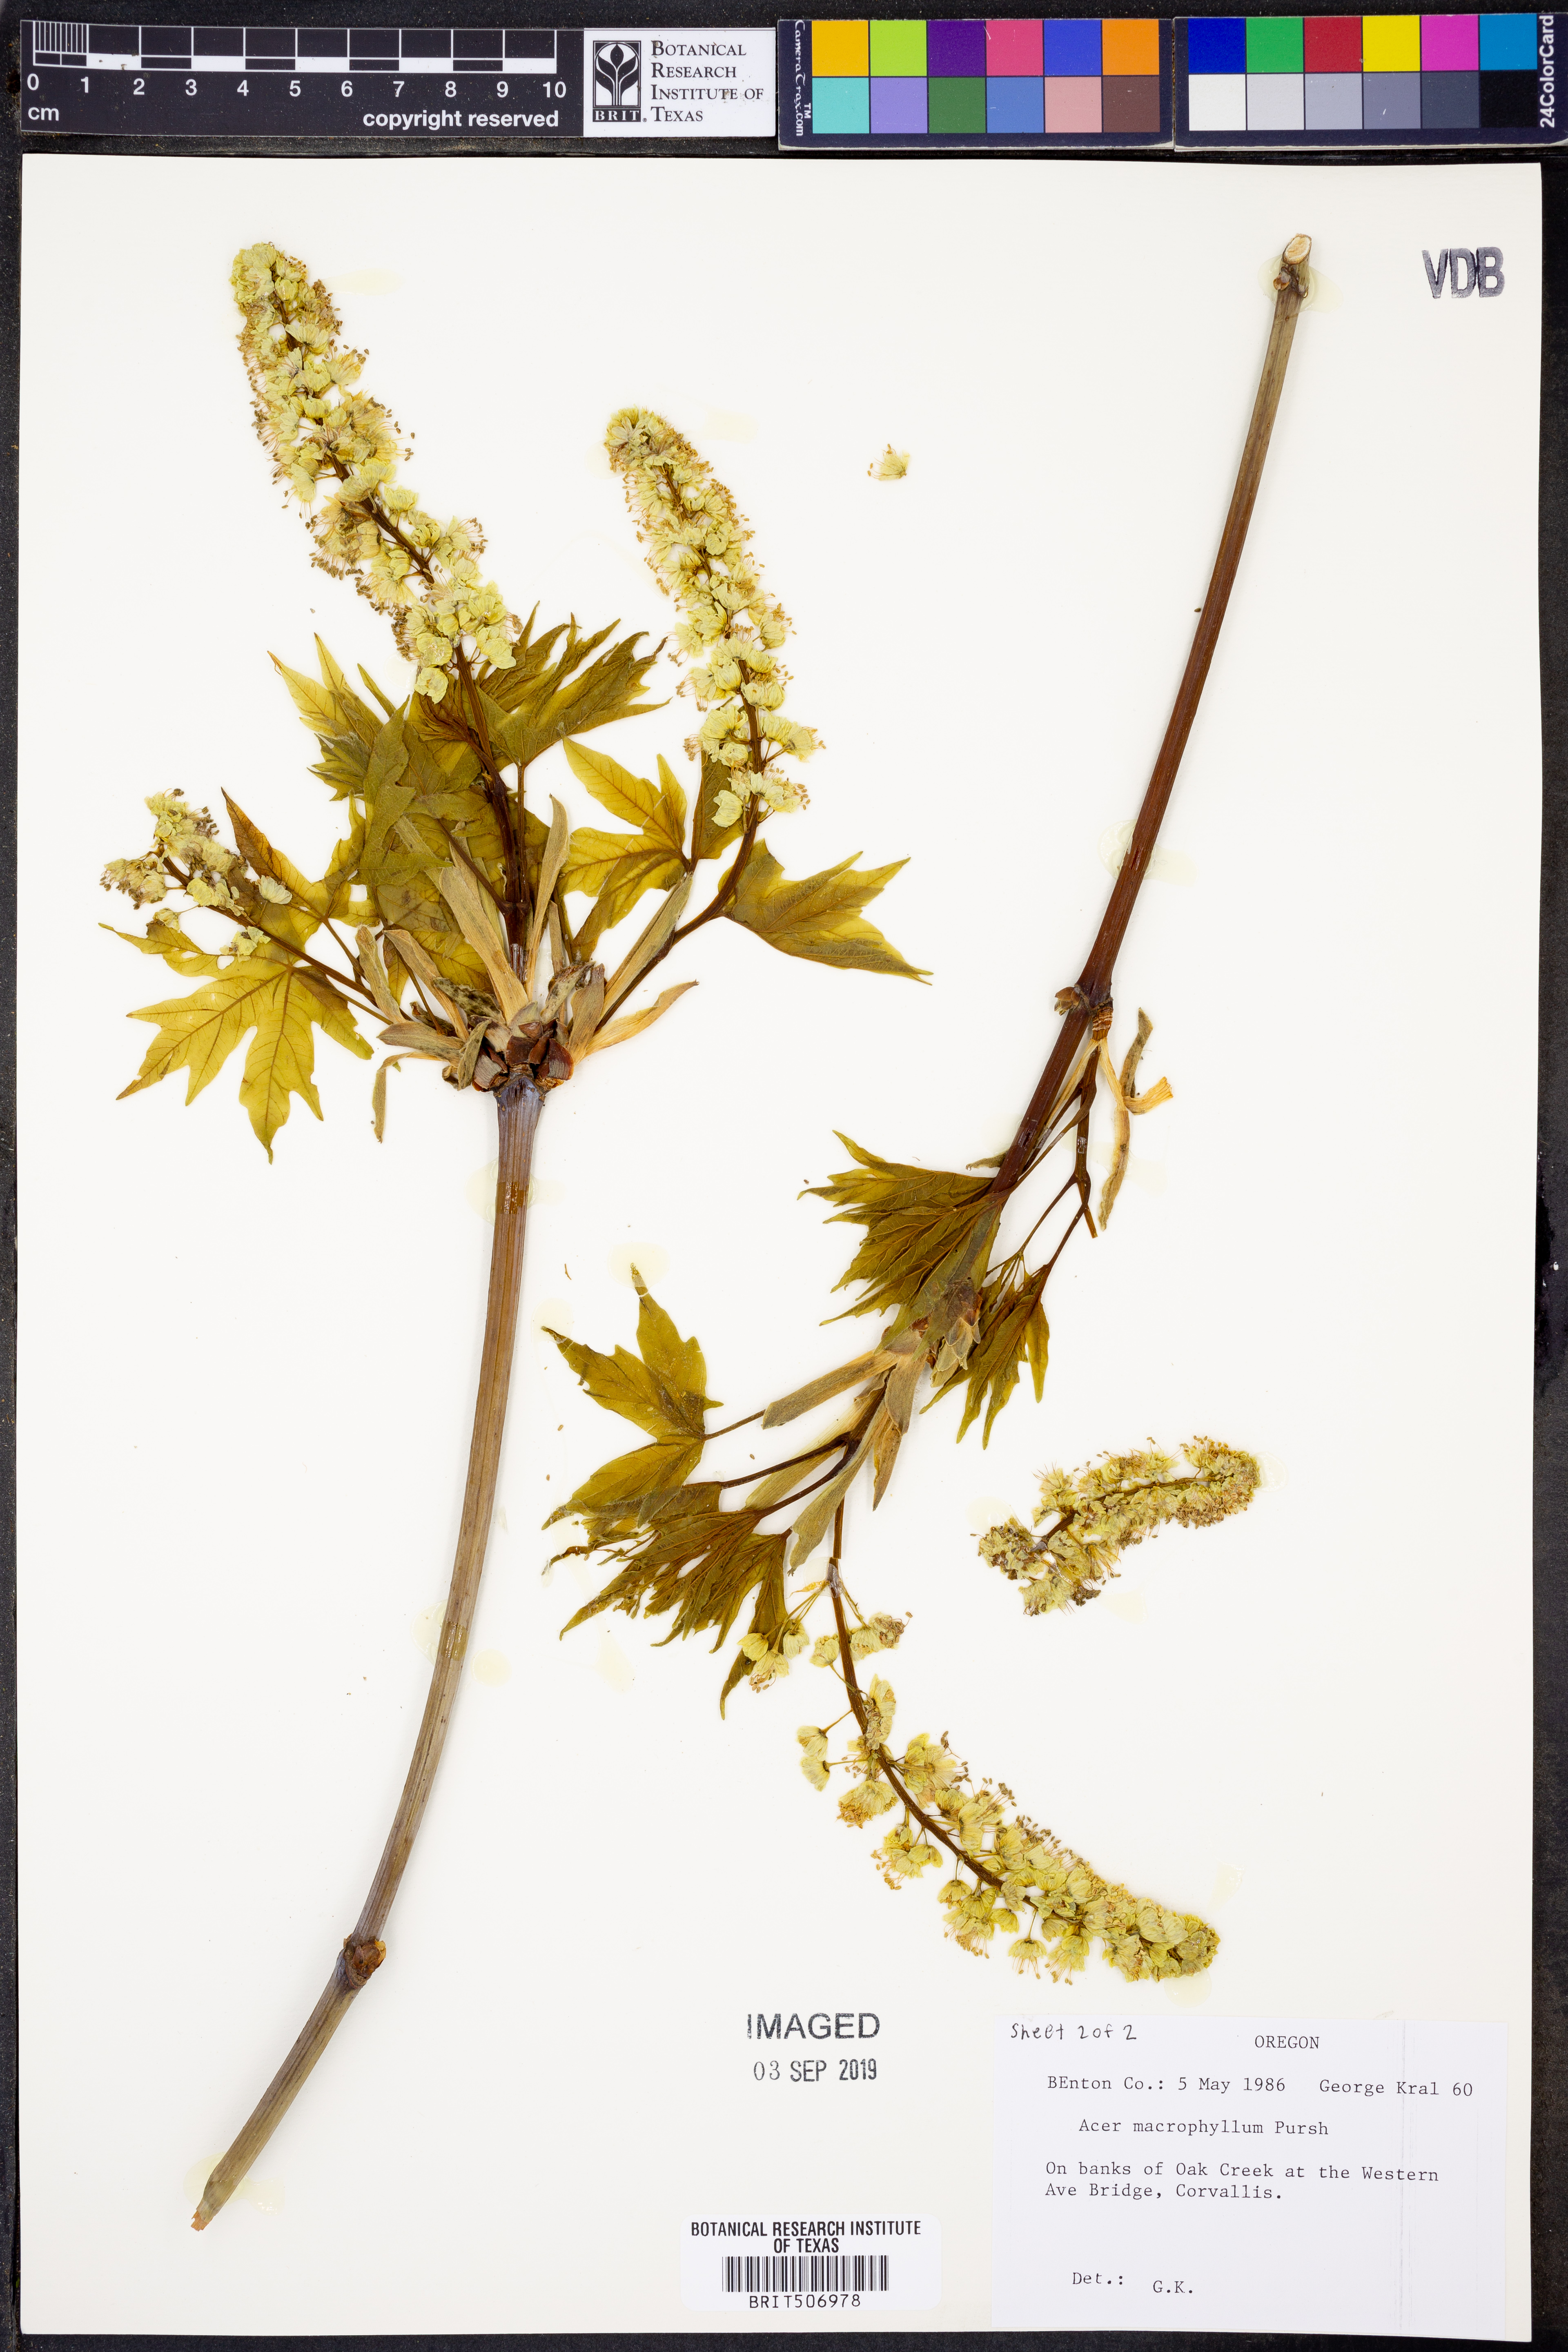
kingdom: Plantae
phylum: Tracheophyta
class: Magnoliopsida
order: Sapindales
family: Sapindaceae
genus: Acer
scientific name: Acer macrophyllum
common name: Oregon maple
